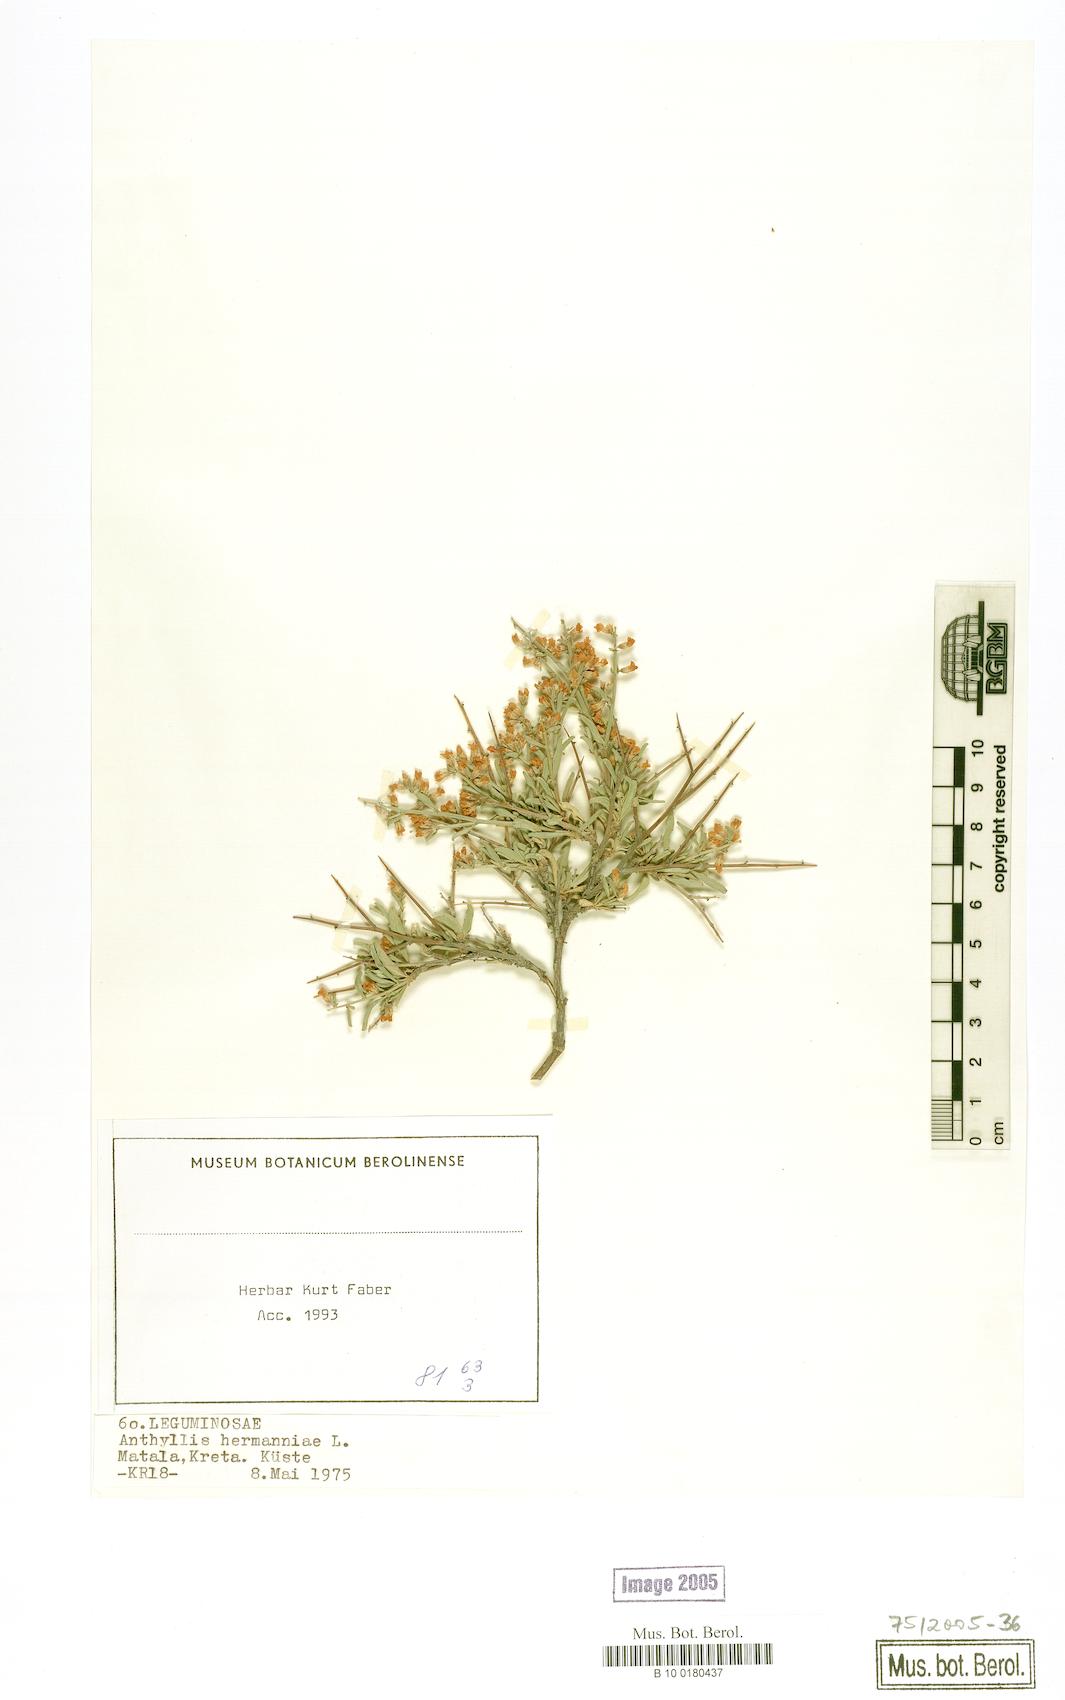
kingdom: Plantae
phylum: Tracheophyta
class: Magnoliopsida
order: Fabales
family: Fabaceae
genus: Anthyllis
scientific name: Anthyllis hermanniae
